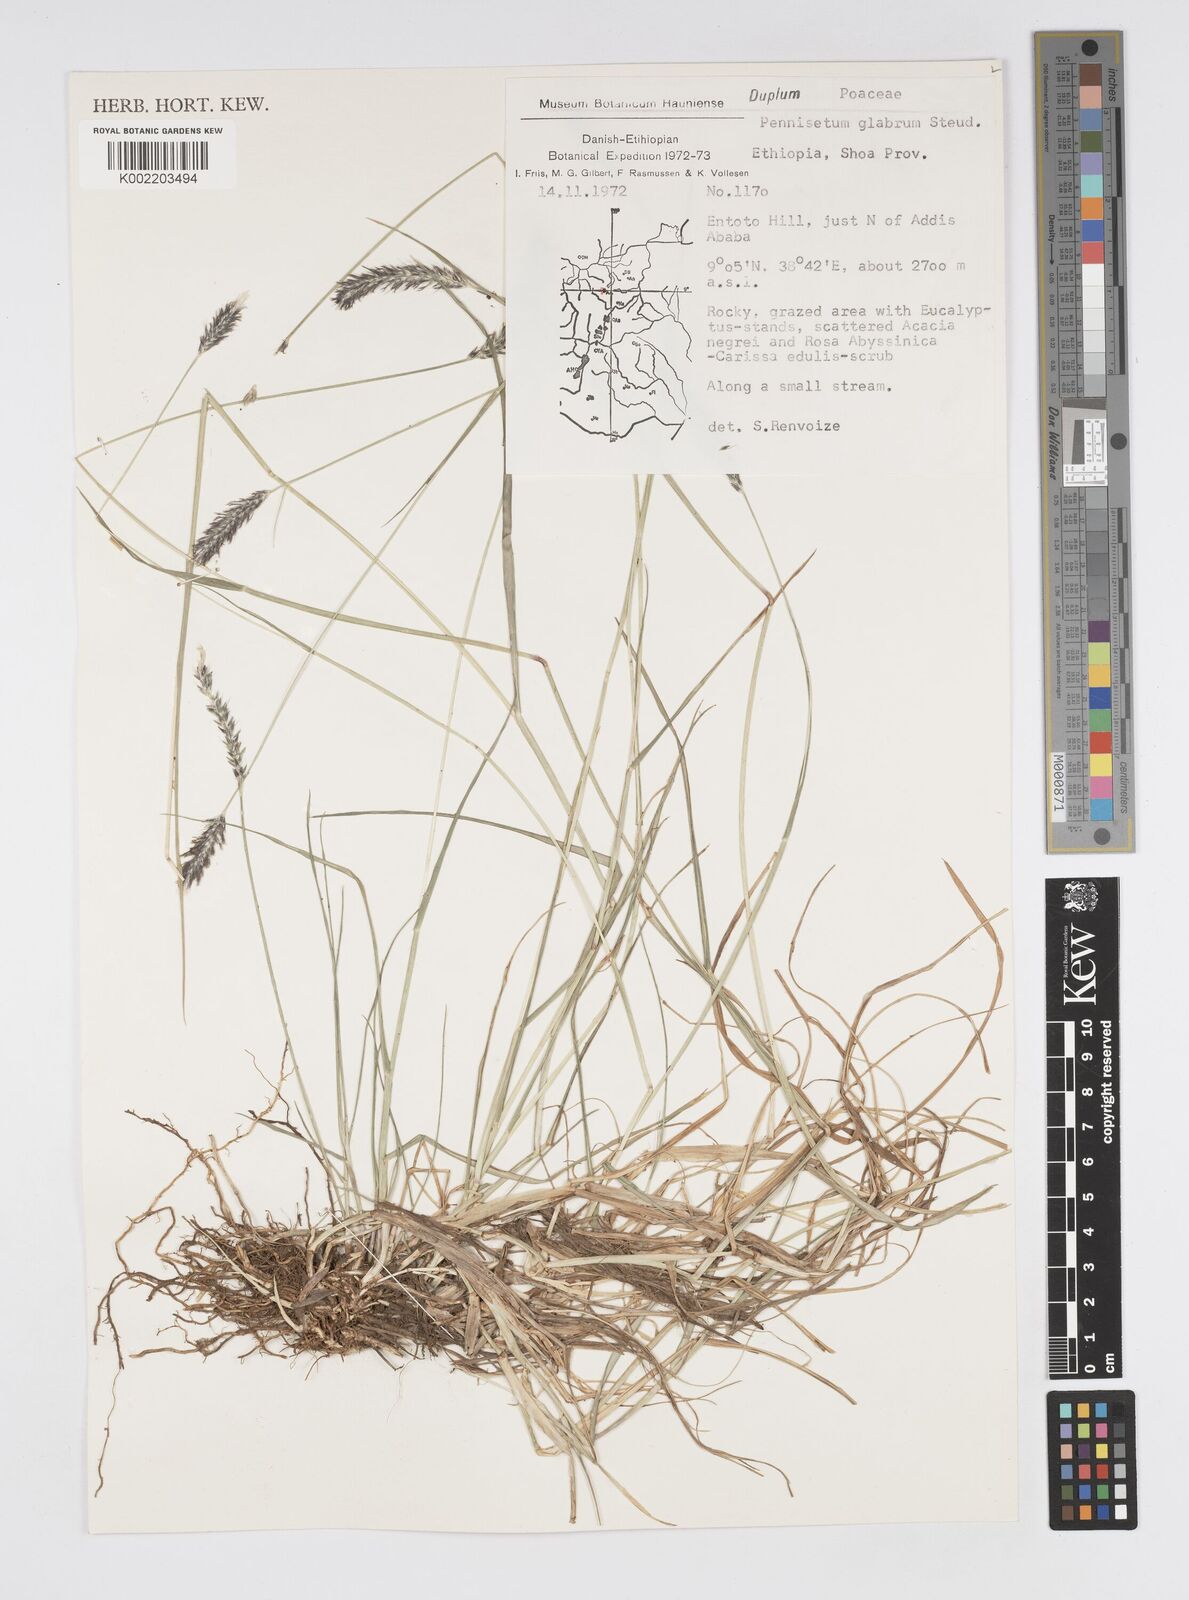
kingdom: Plantae
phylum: Tracheophyta
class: Liliopsida
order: Poales
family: Poaceae
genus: Cenchrus
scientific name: Cenchrus geniculatus
